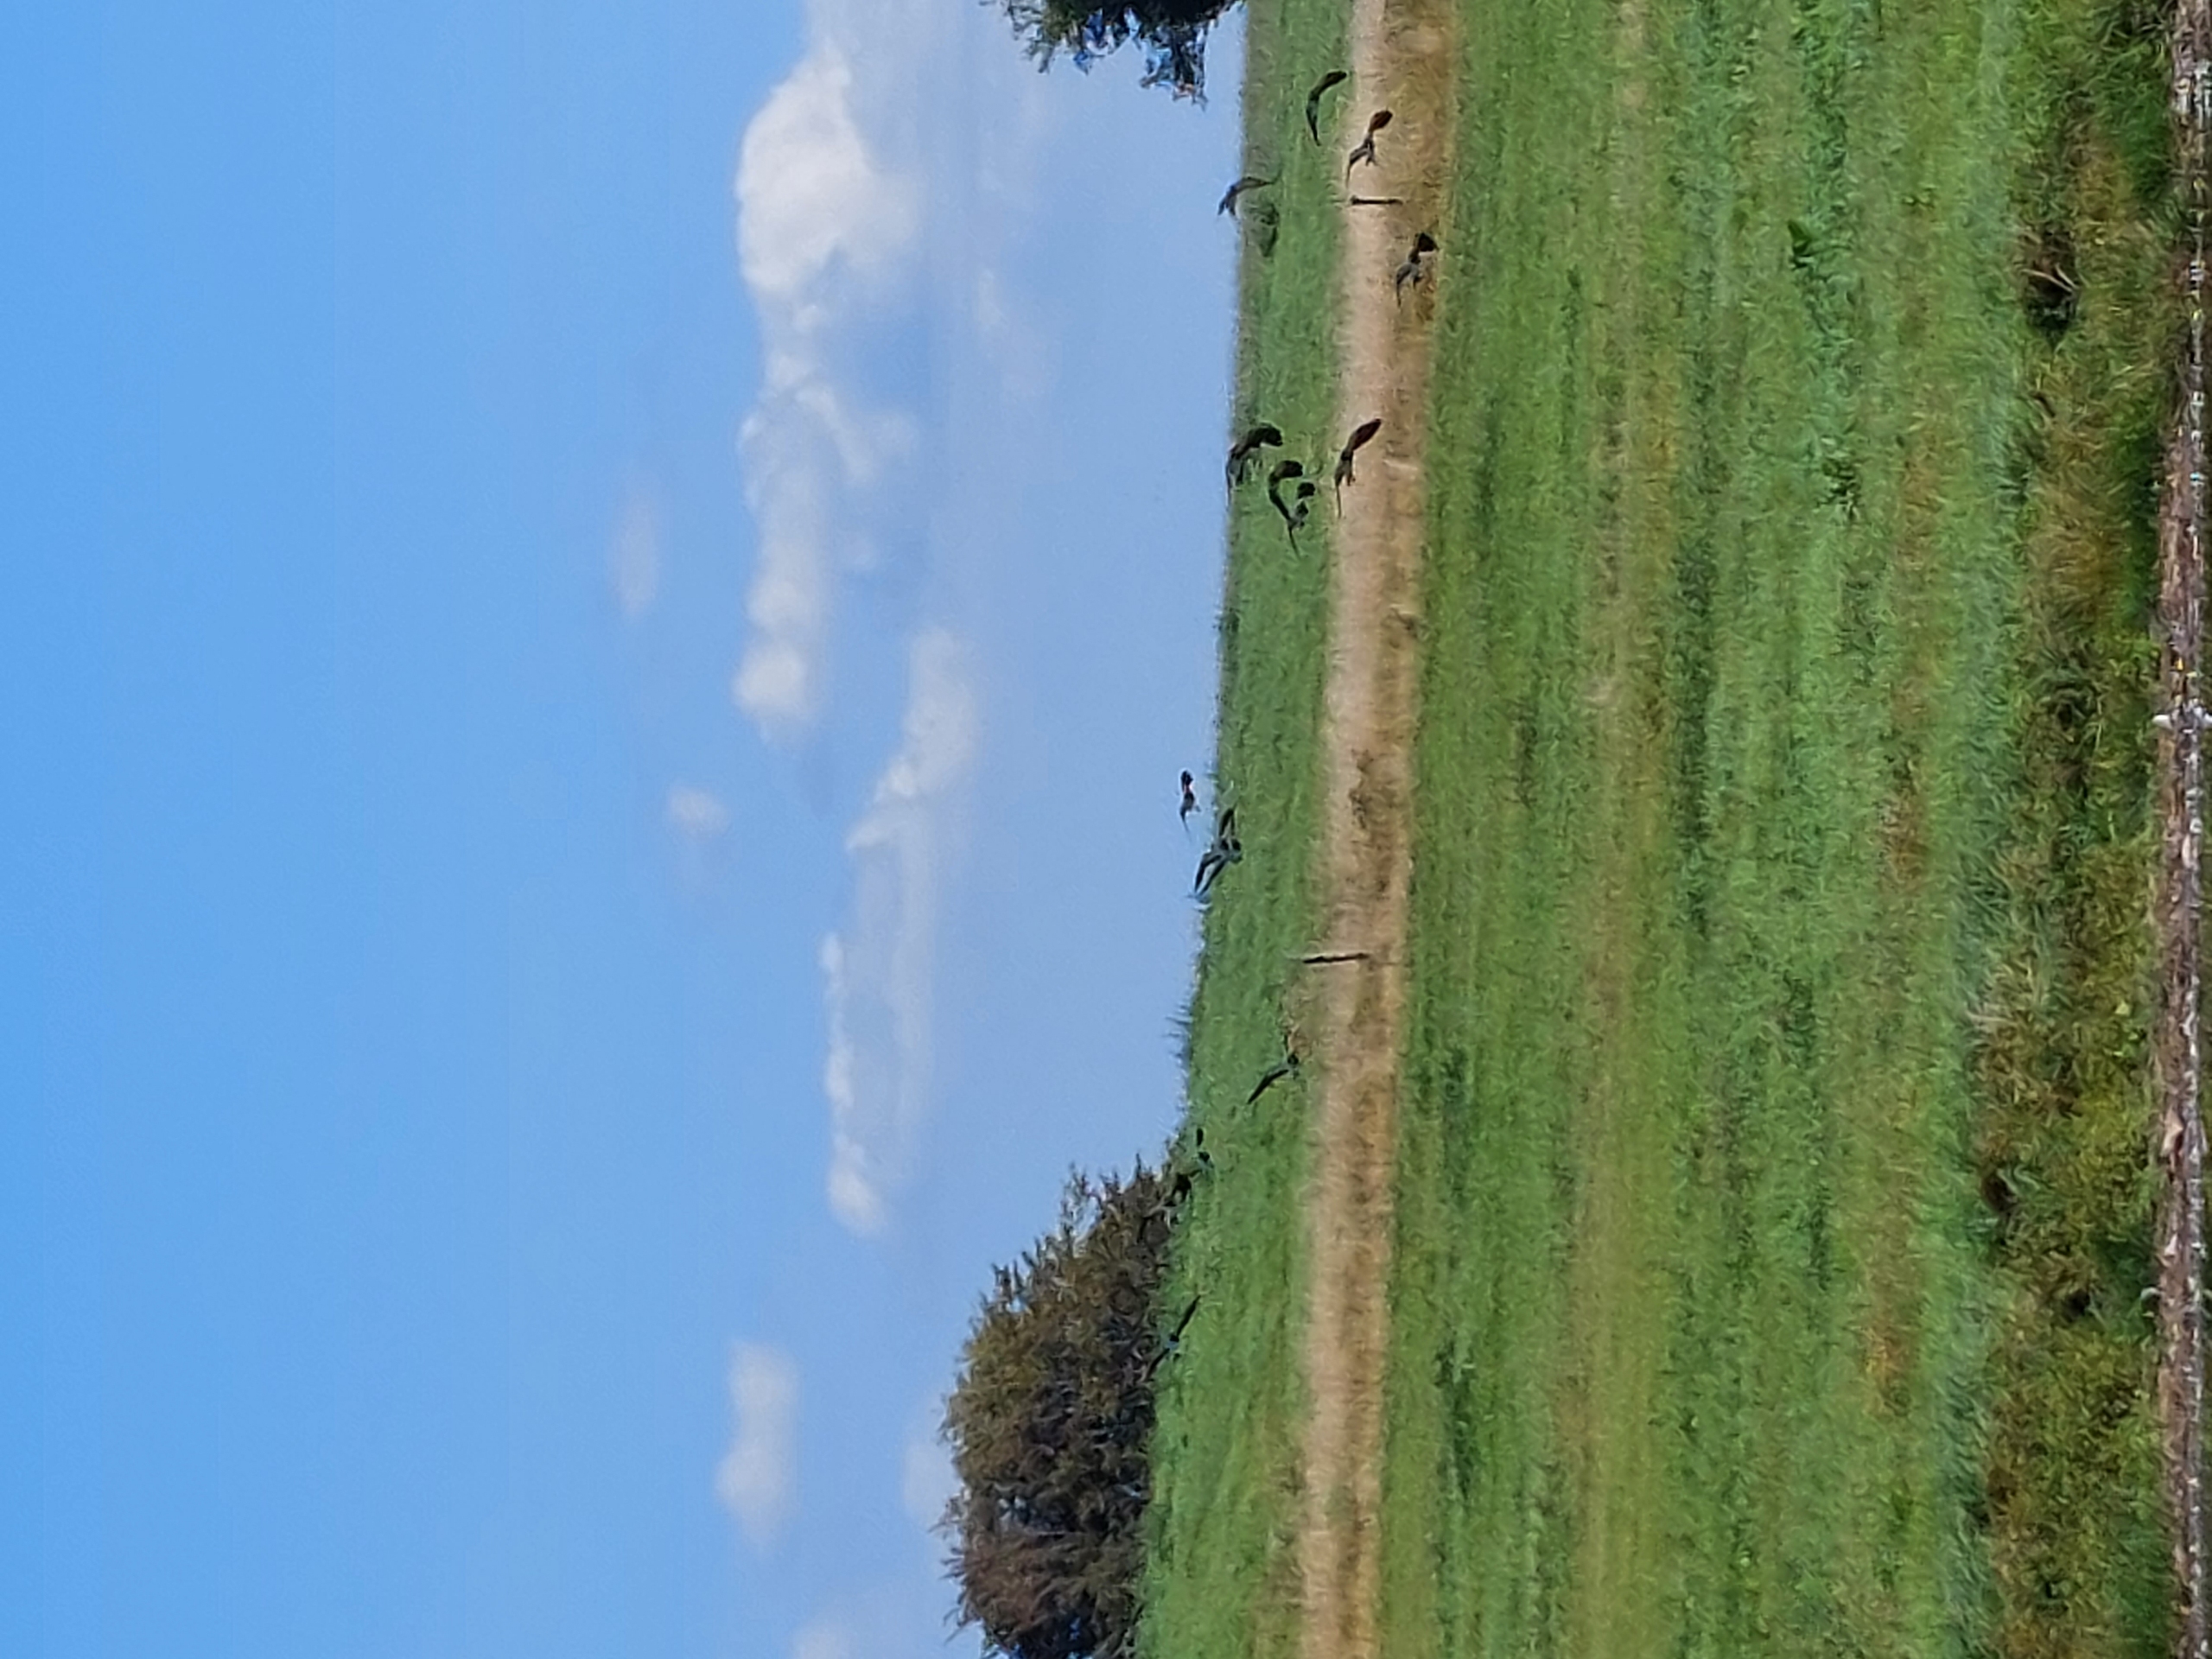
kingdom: Animalia
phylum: Chordata
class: Aves
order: Charadriiformes
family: Charadriidae
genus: Vanellus
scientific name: Vanellus vanellus
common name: Vibe
